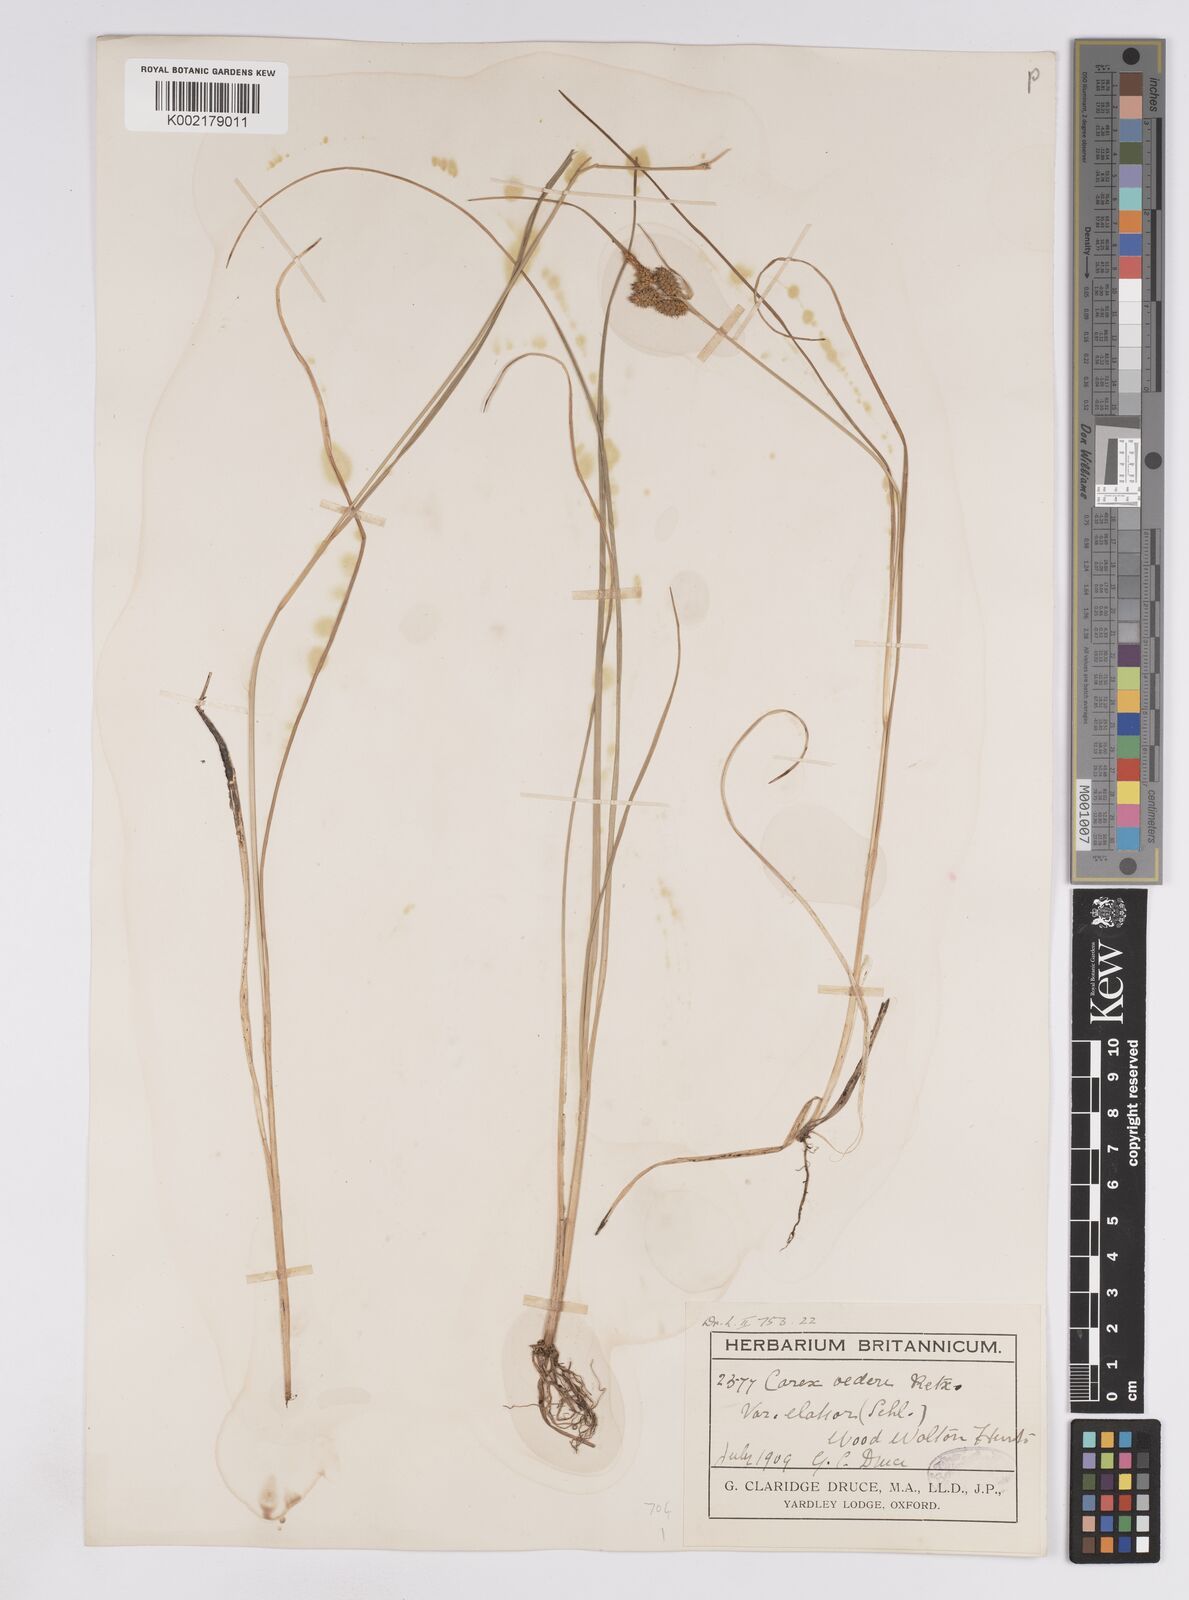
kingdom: Plantae
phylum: Tracheophyta
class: Liliopsida
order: Poales
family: Cyperaceae
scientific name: Cyperaceae
